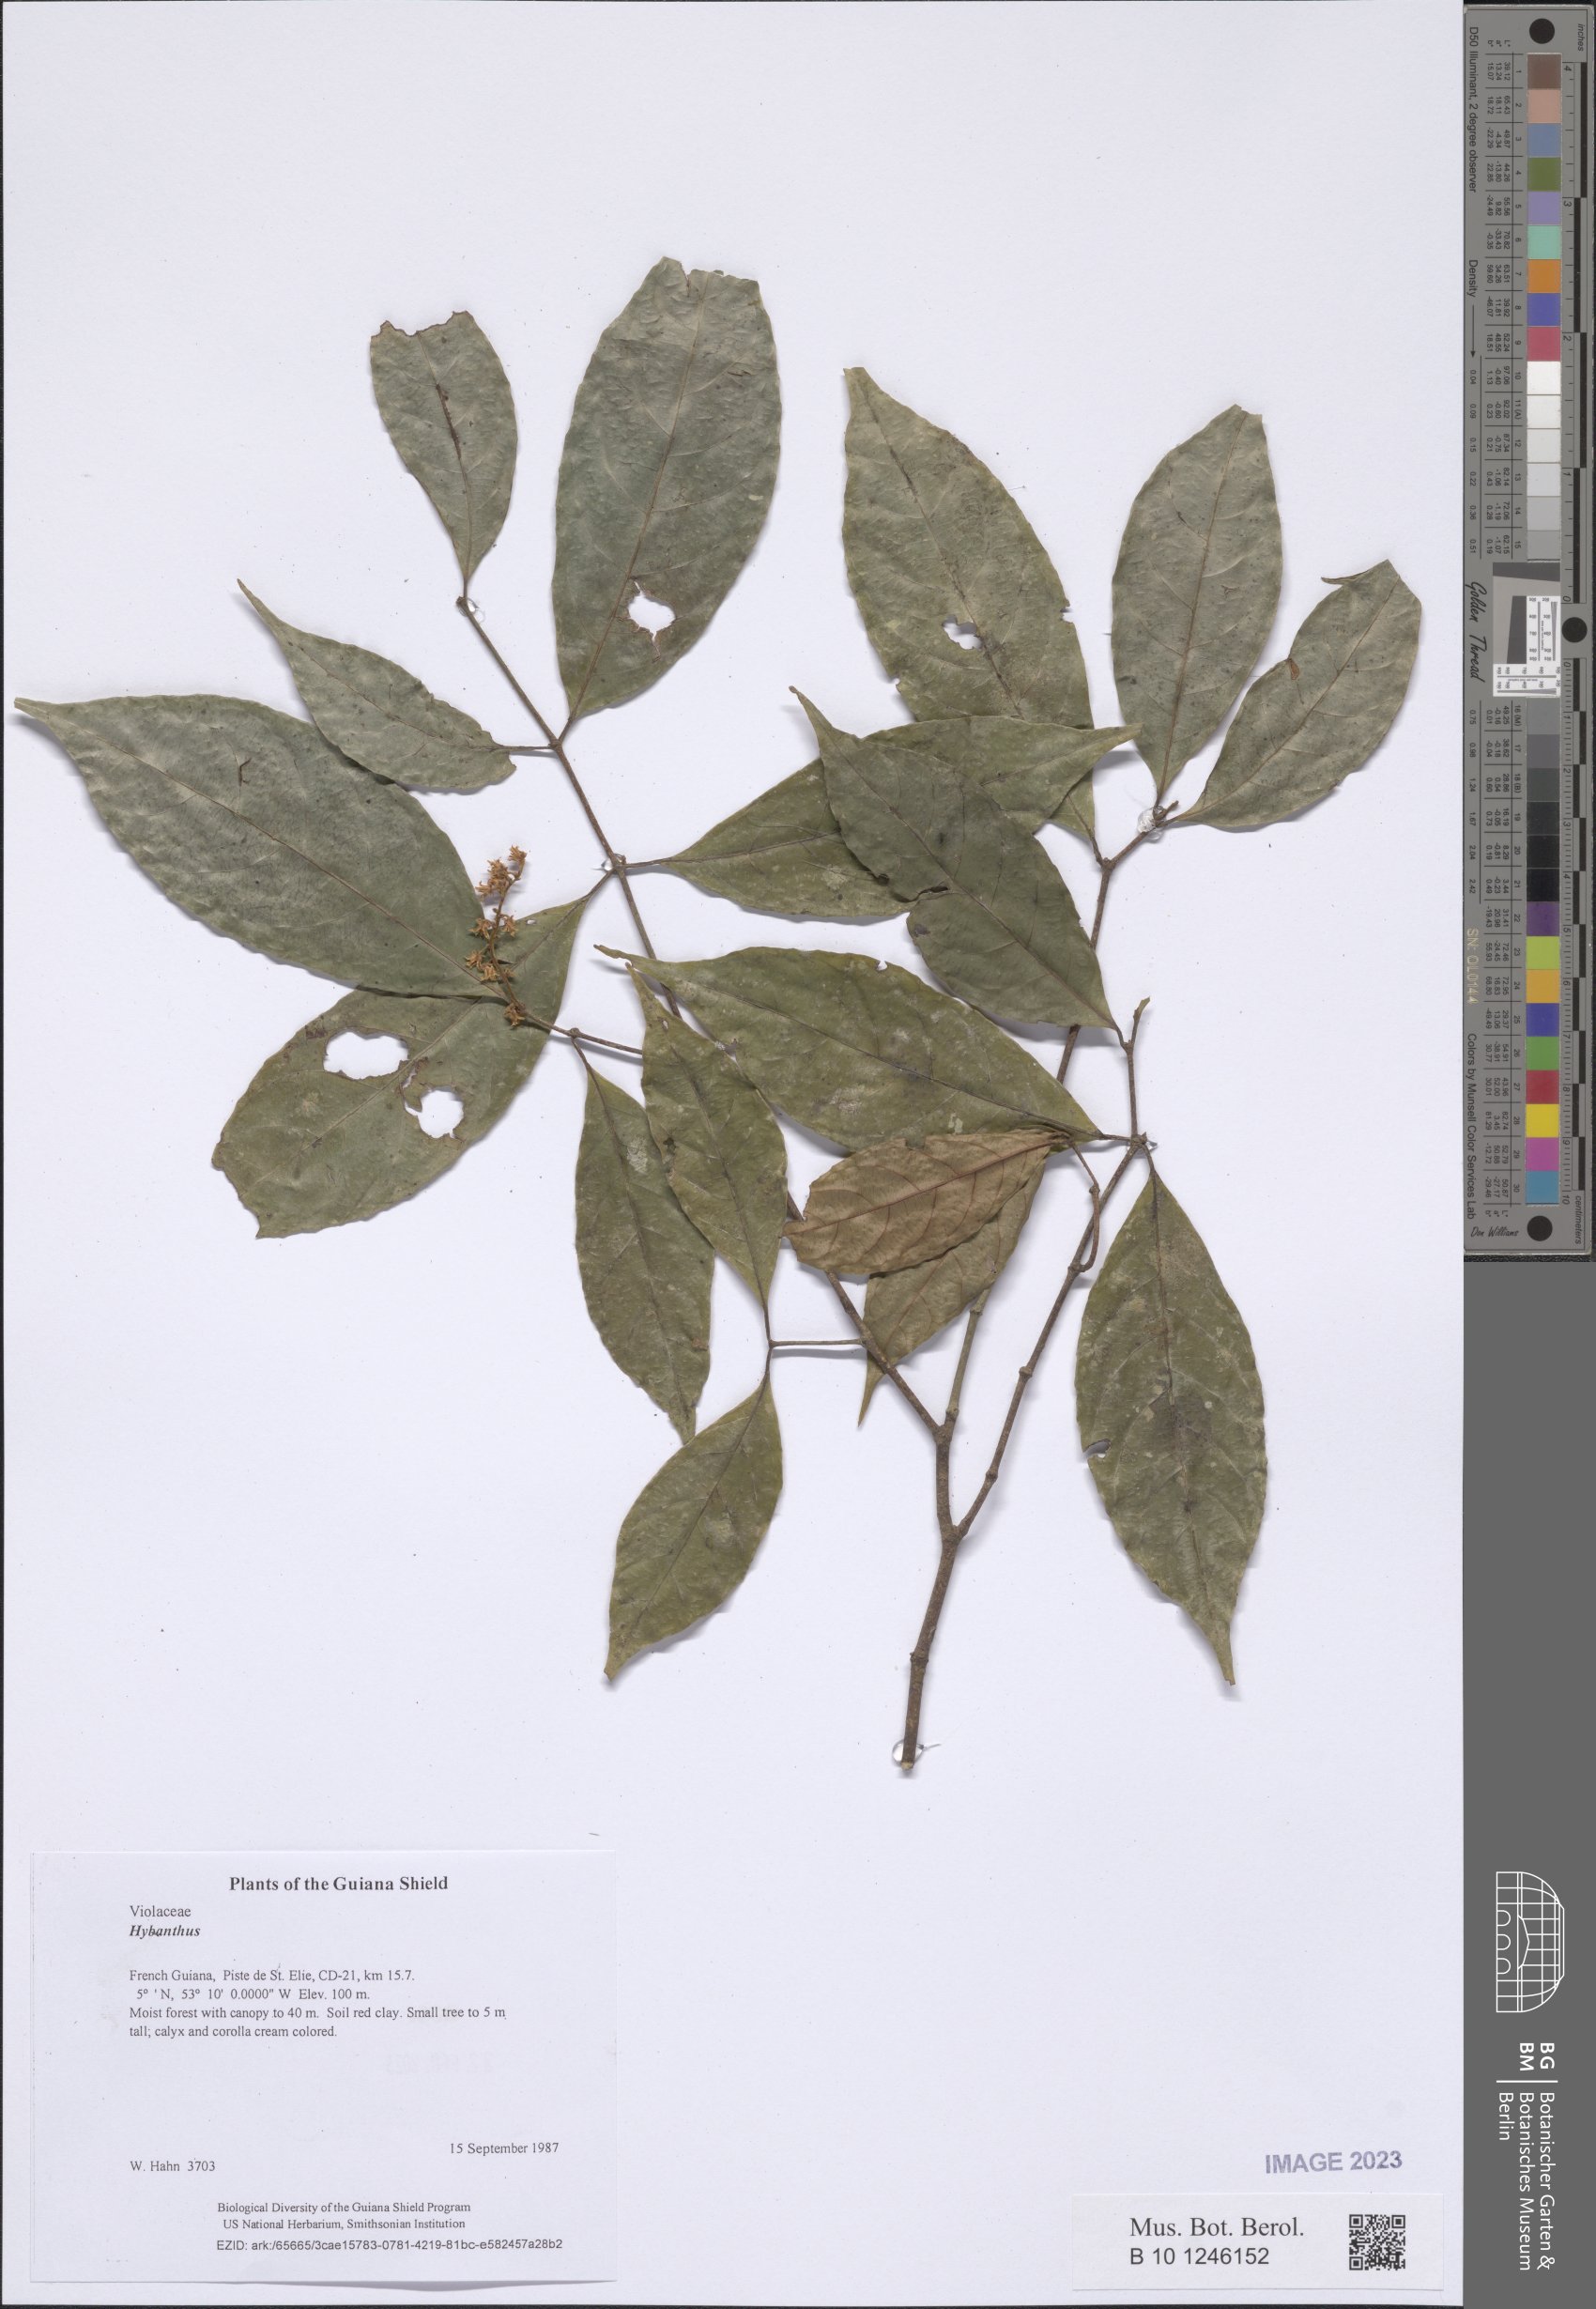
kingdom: Plantae
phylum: Tracheophyta
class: Magnoliopsida
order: Malpighiales
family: Violaceae
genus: Hybanthus
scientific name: Hybanthus
